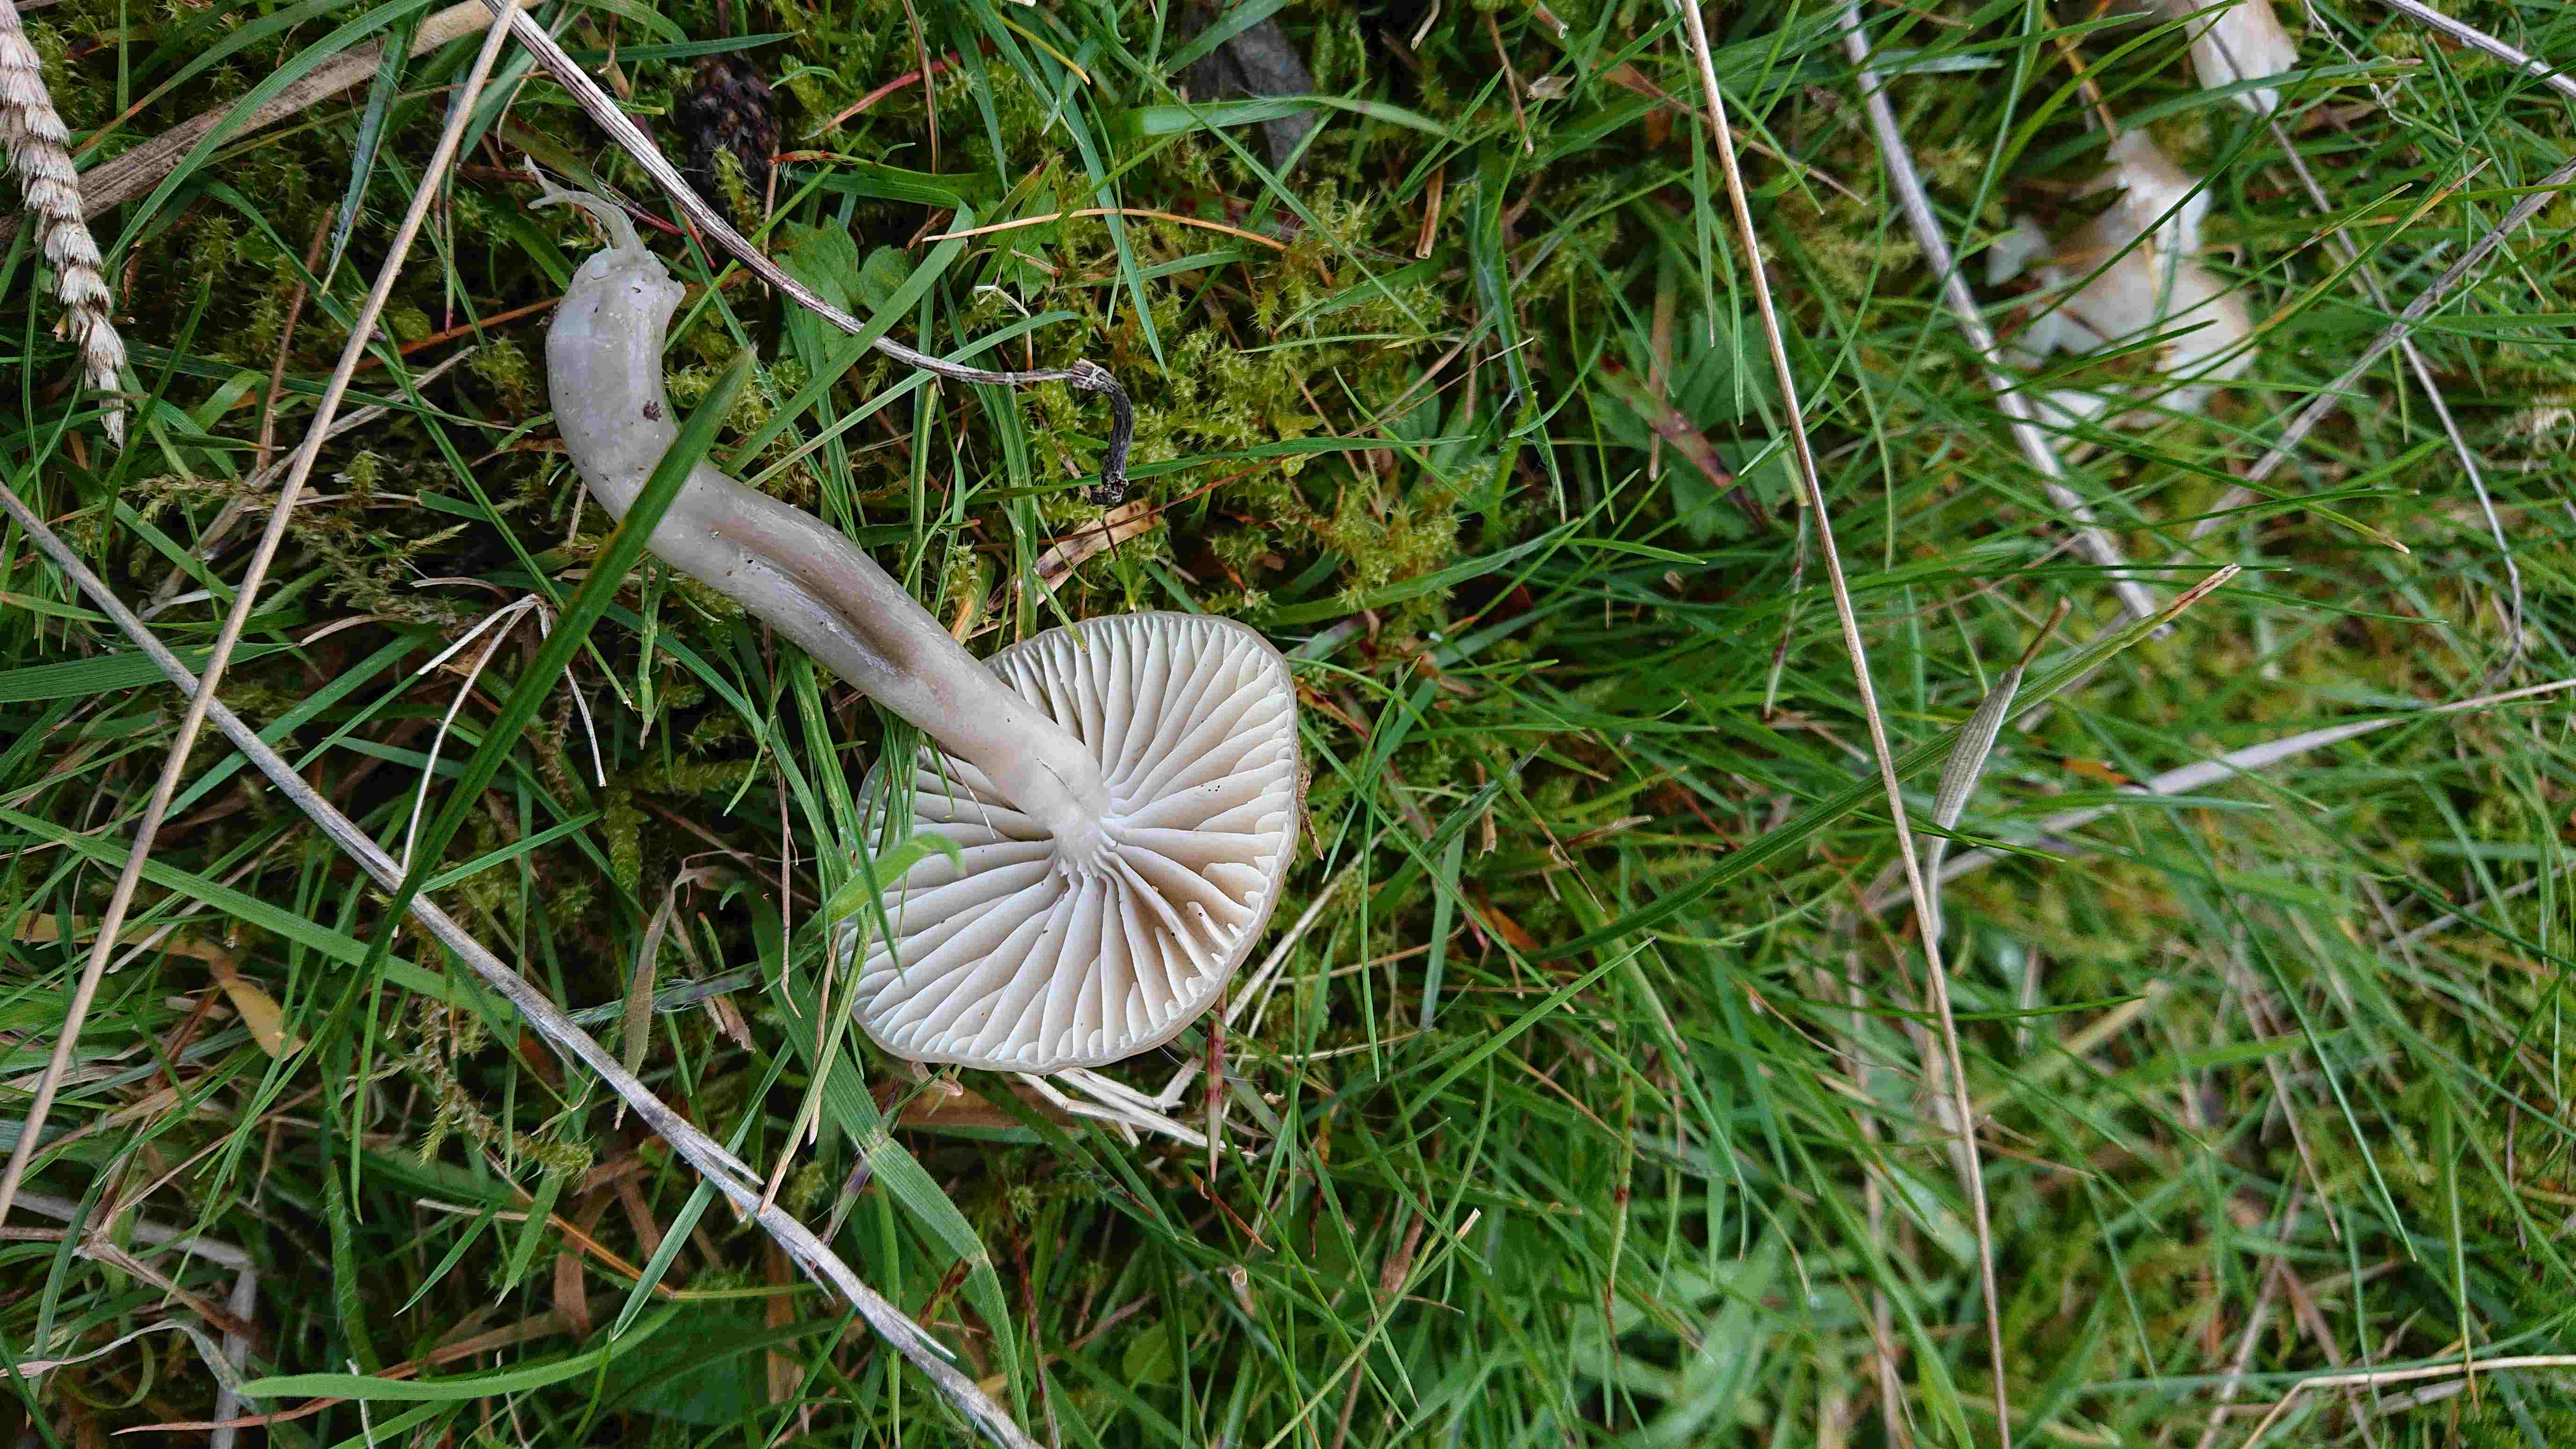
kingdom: Fungi
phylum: Basidiomycota
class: Agaricomycetes
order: Agaricales
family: Hygrophoraceae
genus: Gliophorus
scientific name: Gliophorus irrigatus
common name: slimet vokshat
